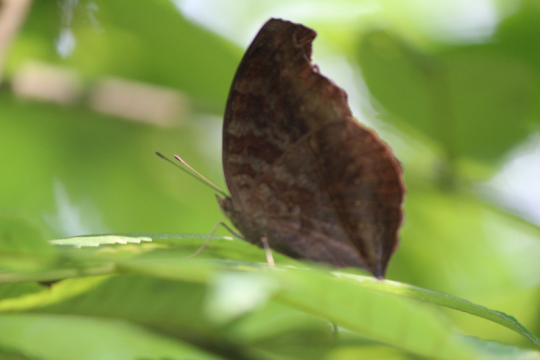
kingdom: Animalia
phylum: Arthropoda
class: Insecta
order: Lepidoptera
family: Nymphalidae
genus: Junonia
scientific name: Junonia iphita
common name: Chocolate Pansy
